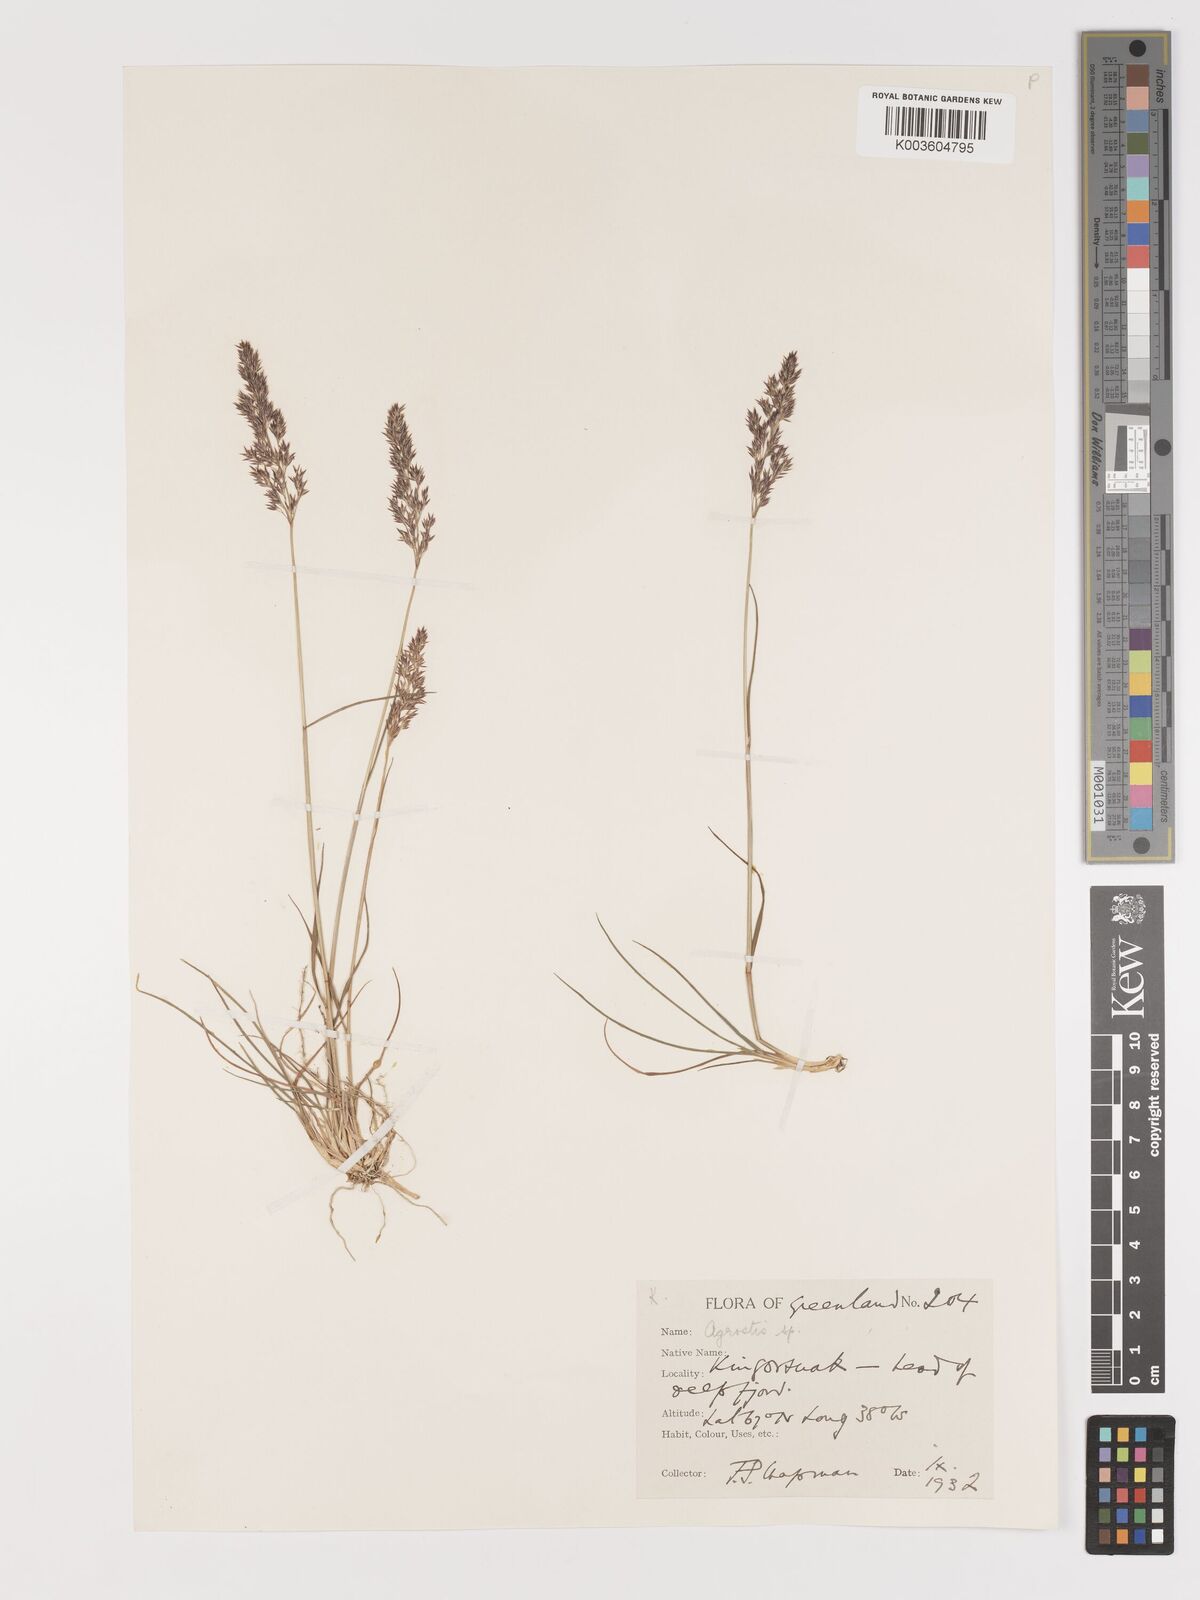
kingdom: Plantae
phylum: Tracheophyta
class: Liliopsida
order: Poales
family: Poaceae
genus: Agrostis
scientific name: Agrostis
